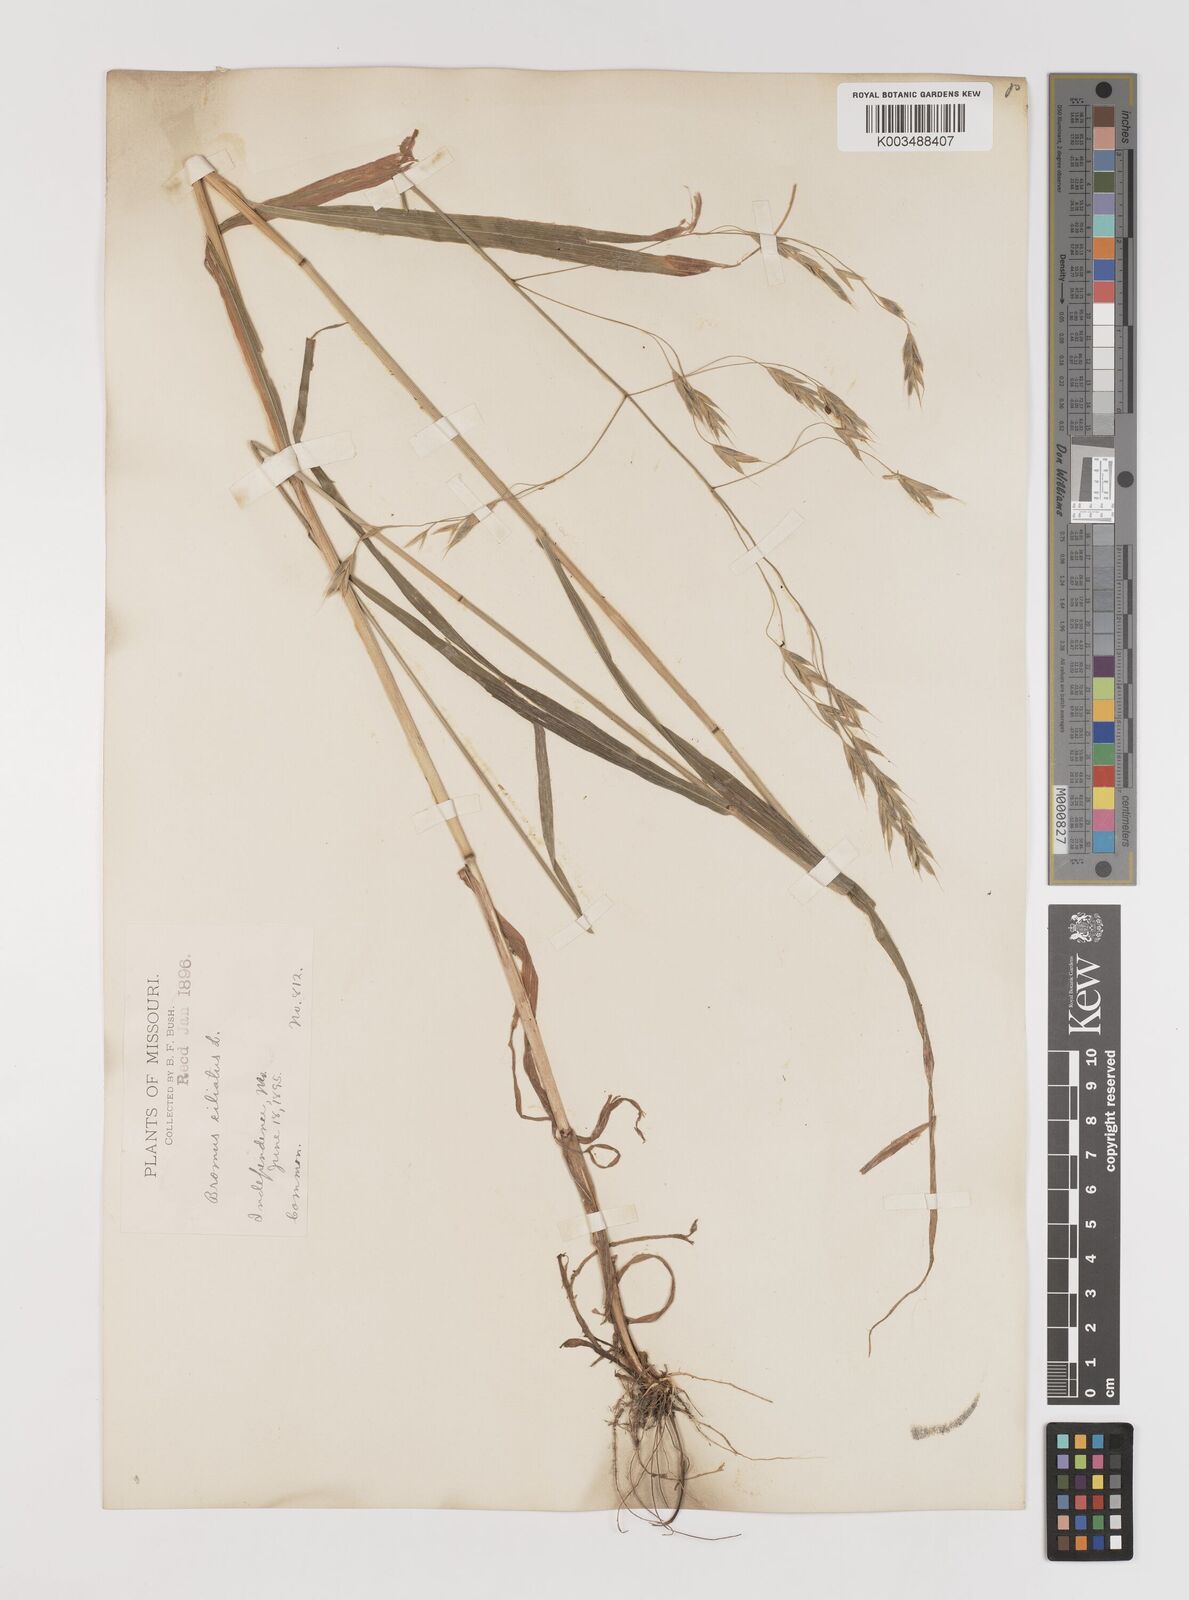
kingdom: Plantae
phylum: Tracheophyta
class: Liliopsida
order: Poales
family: Poaceae
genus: Bromus
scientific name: Bromus ciliatus
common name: Fringe brome
